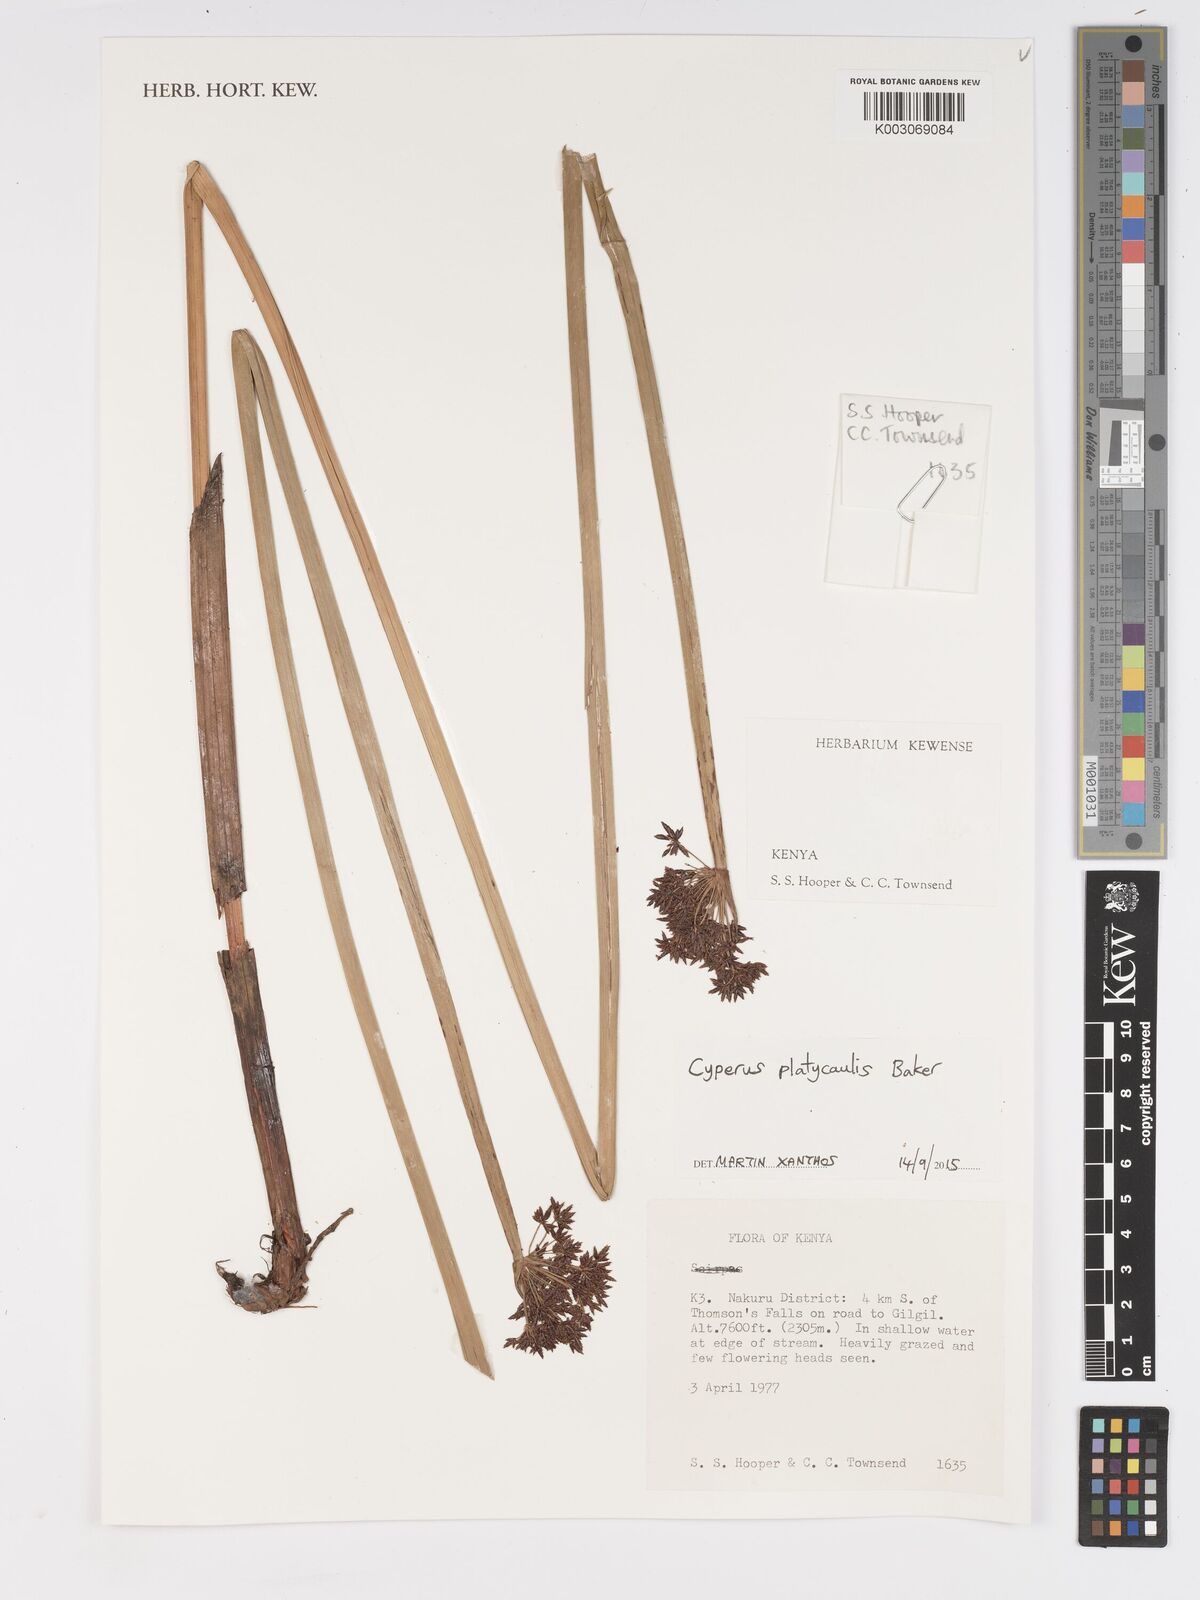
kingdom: Plantae
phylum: Tracheophyta
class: Liliopsida
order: Poales
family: Cyperaceae
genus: Cyperus
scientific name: Cyperus platycaulis
